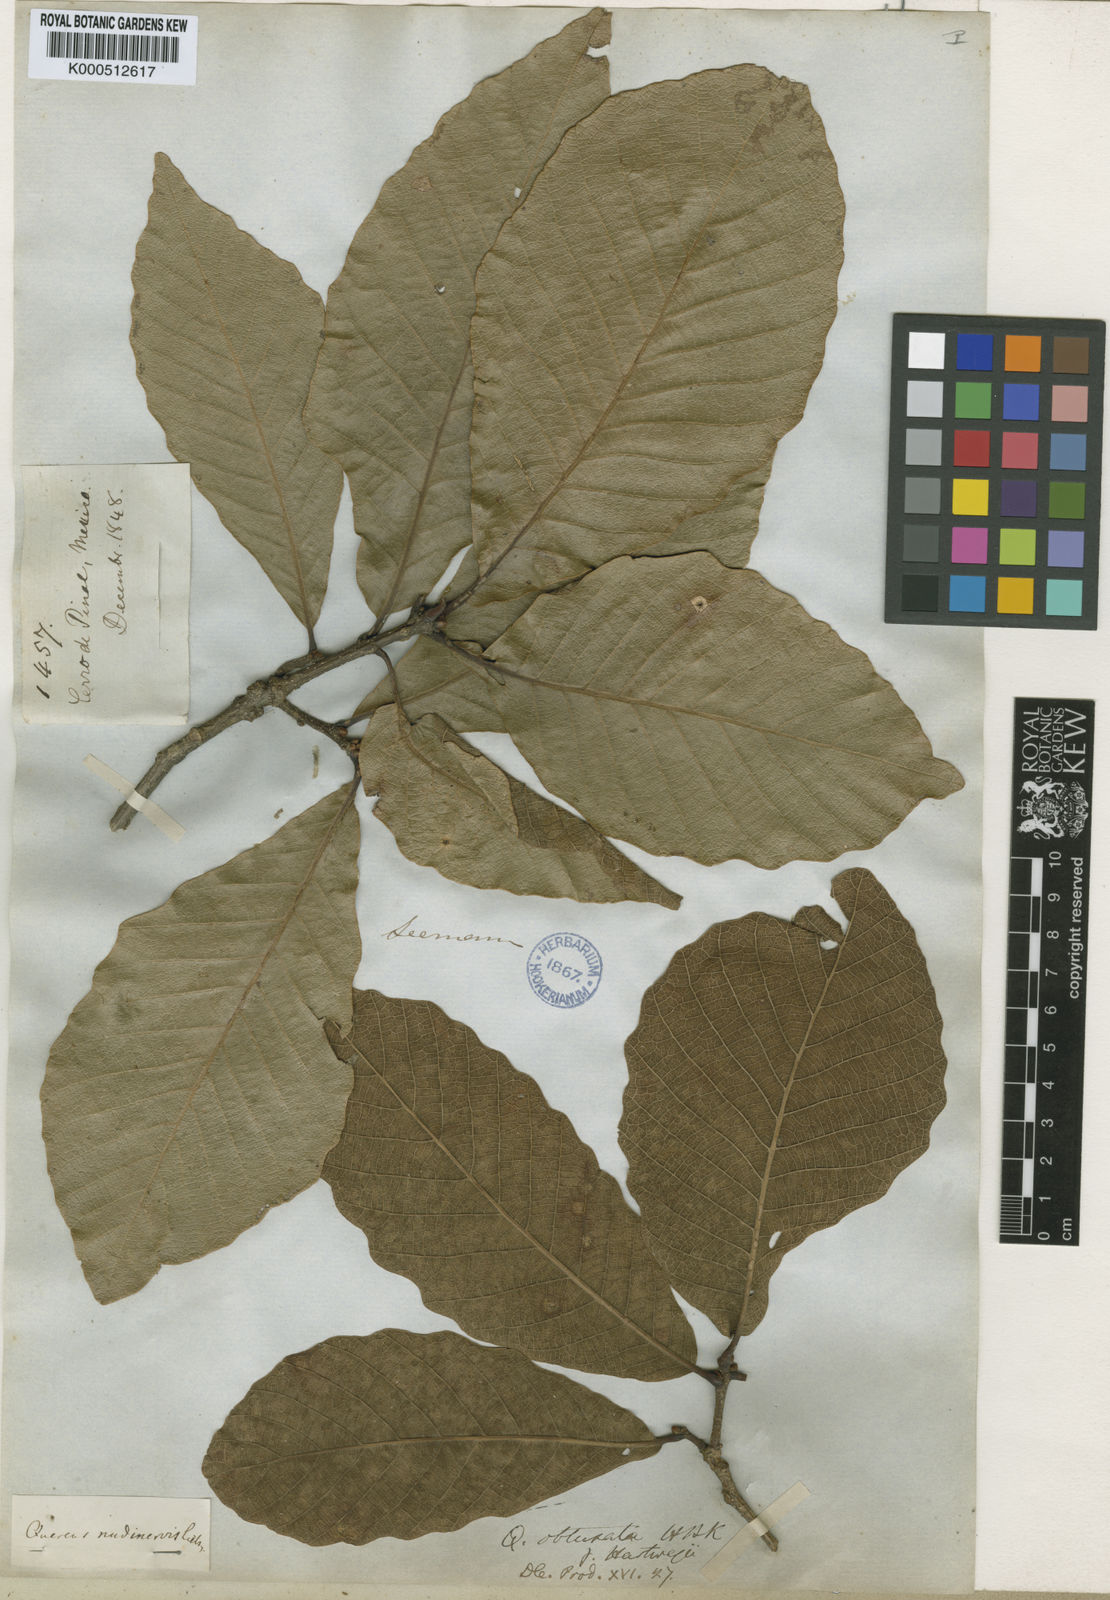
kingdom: Plantae
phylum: Tracheophyta
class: Magnoliopsida
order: Fagales
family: Fagaceae
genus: Quercus
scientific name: Quercus magnoliifolia
